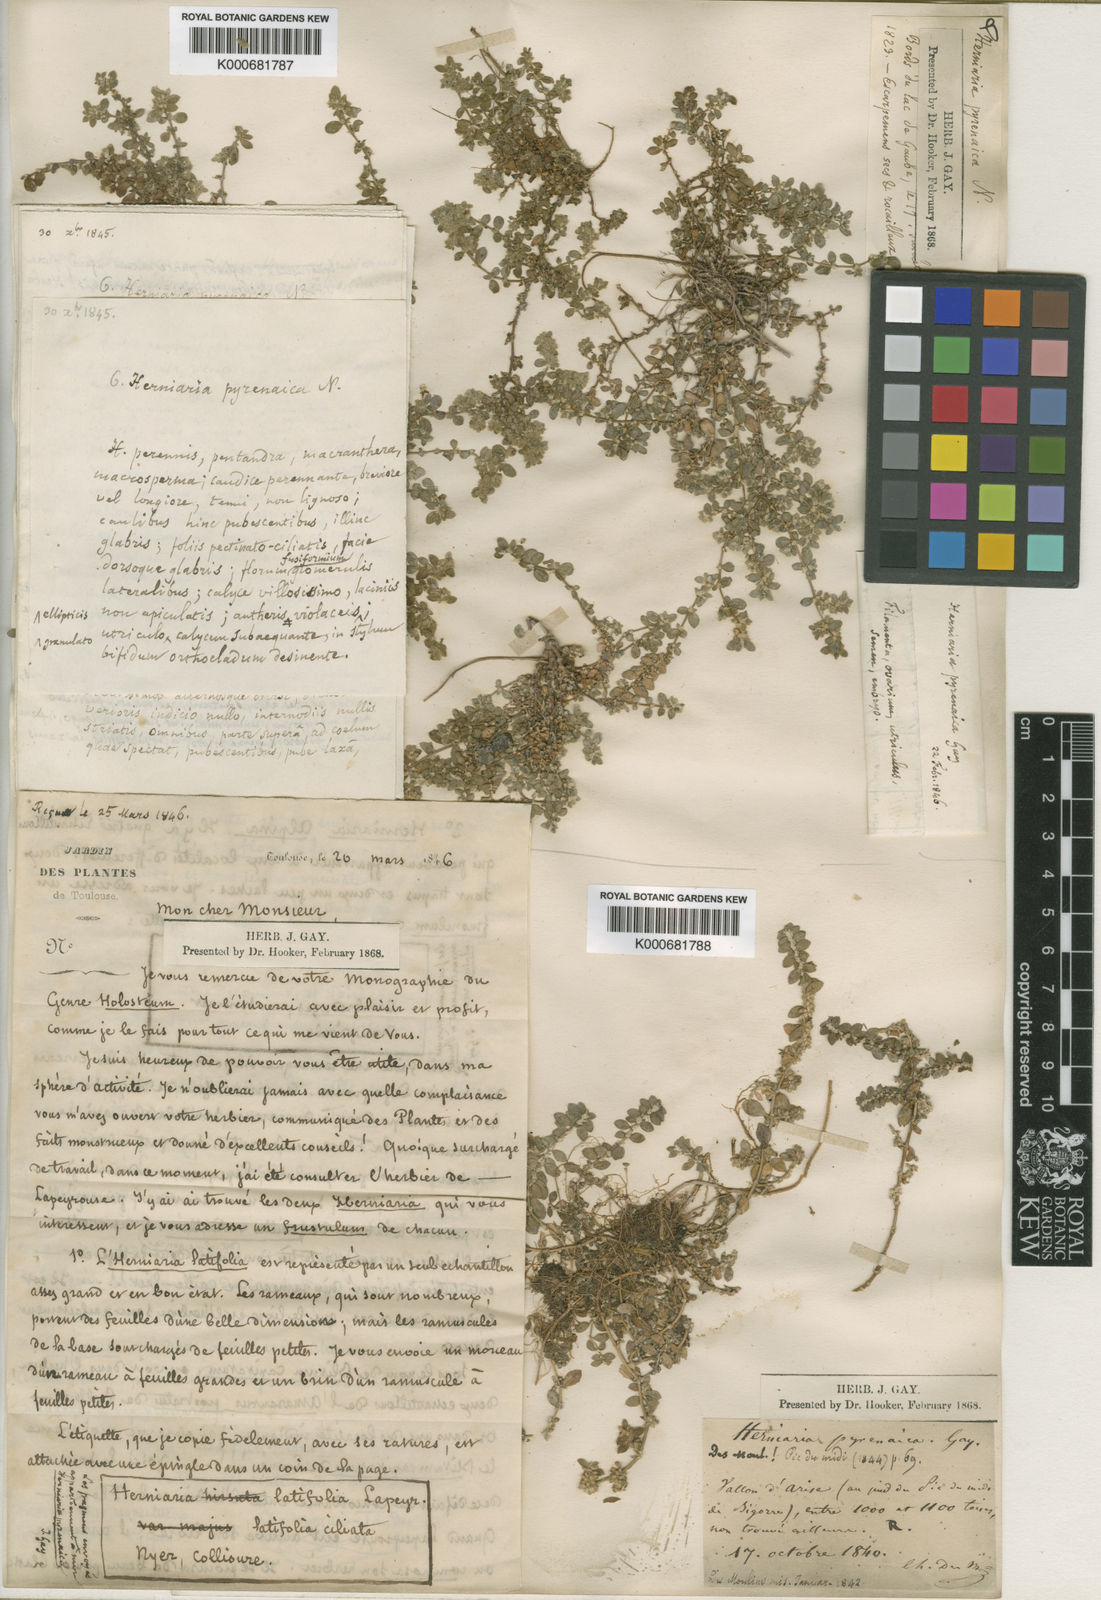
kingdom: Plantae
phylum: Tracheophyta
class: Magnoliopsida
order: Caryophyllales
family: Caryophyllaceae
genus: Herniaria
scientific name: Herniaria latifolia
